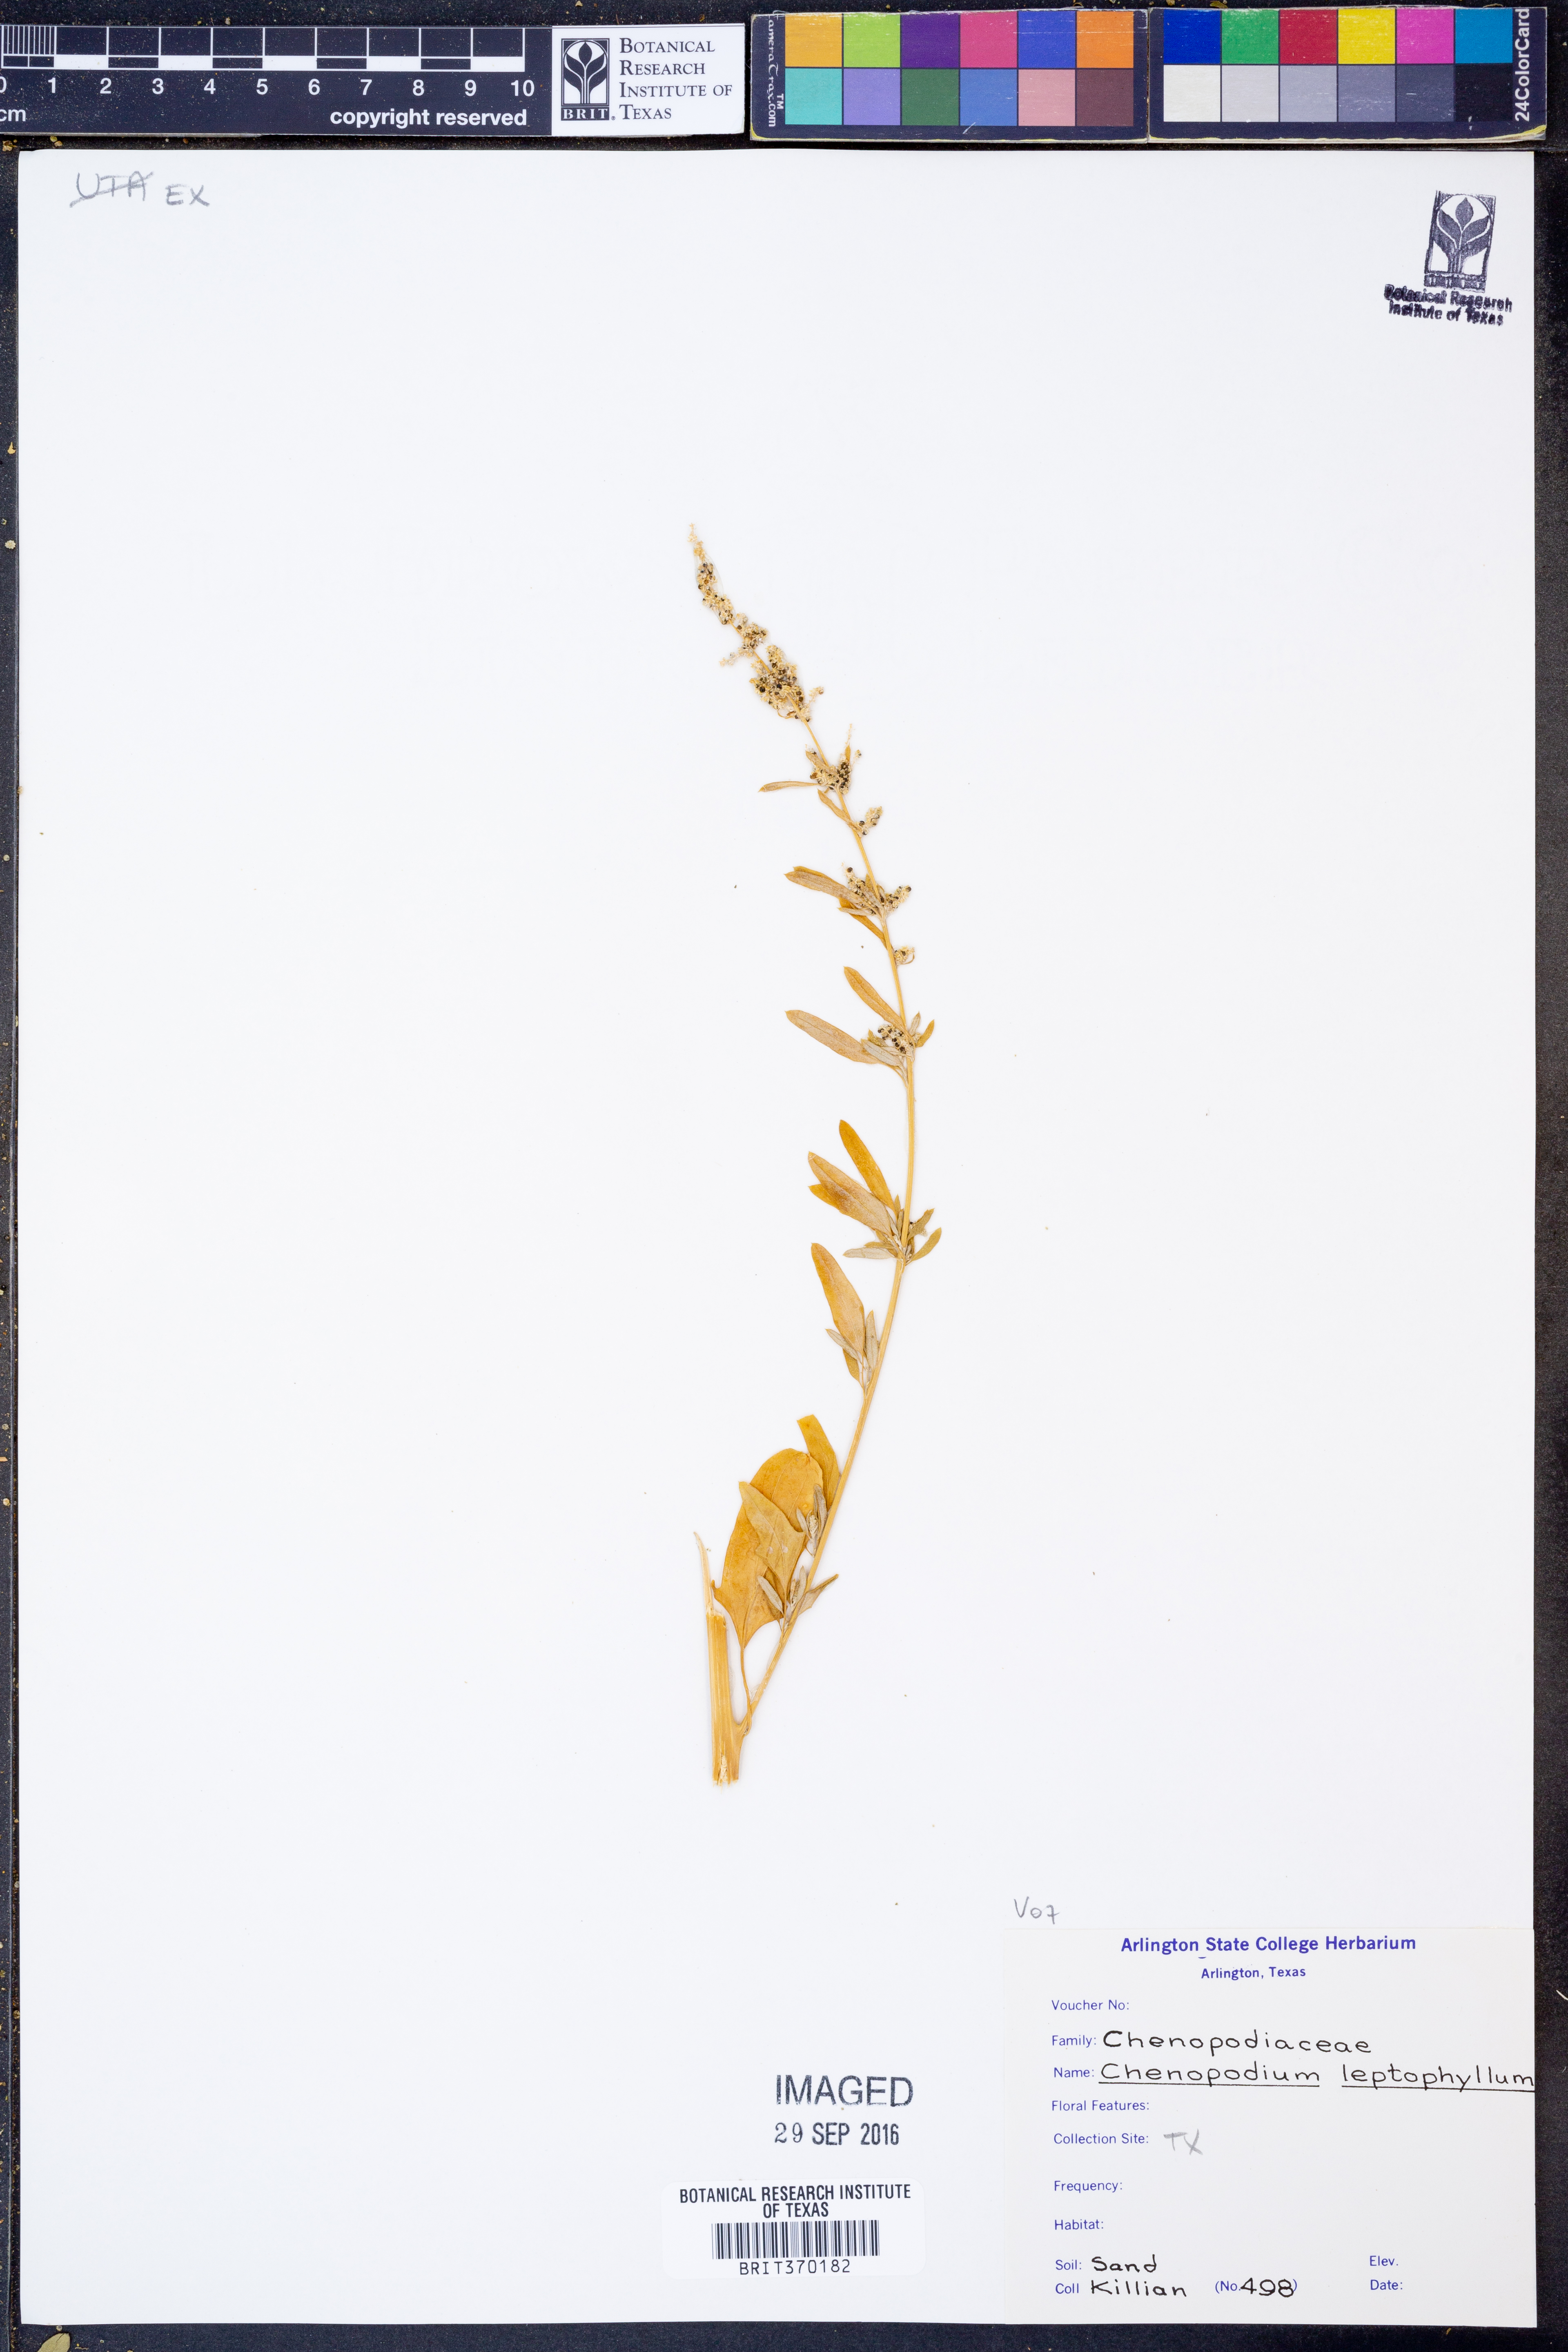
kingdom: Plantae
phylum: Tracheophyta
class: Magnoliopsida
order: Caryophyllales
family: Amaranthaceae
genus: Chenopodium
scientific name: Chenopodium leptophyllum
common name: Narrow-leaf goosefoot
